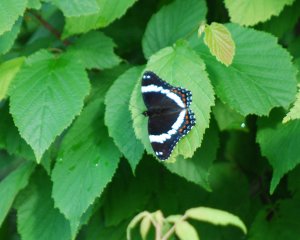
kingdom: Animalia
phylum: Arthropoda
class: Insecta
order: Lepidoptera
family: Nymphalidae
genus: Limenitis
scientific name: Limenitis arthemis
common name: Red-spotted Admiral
